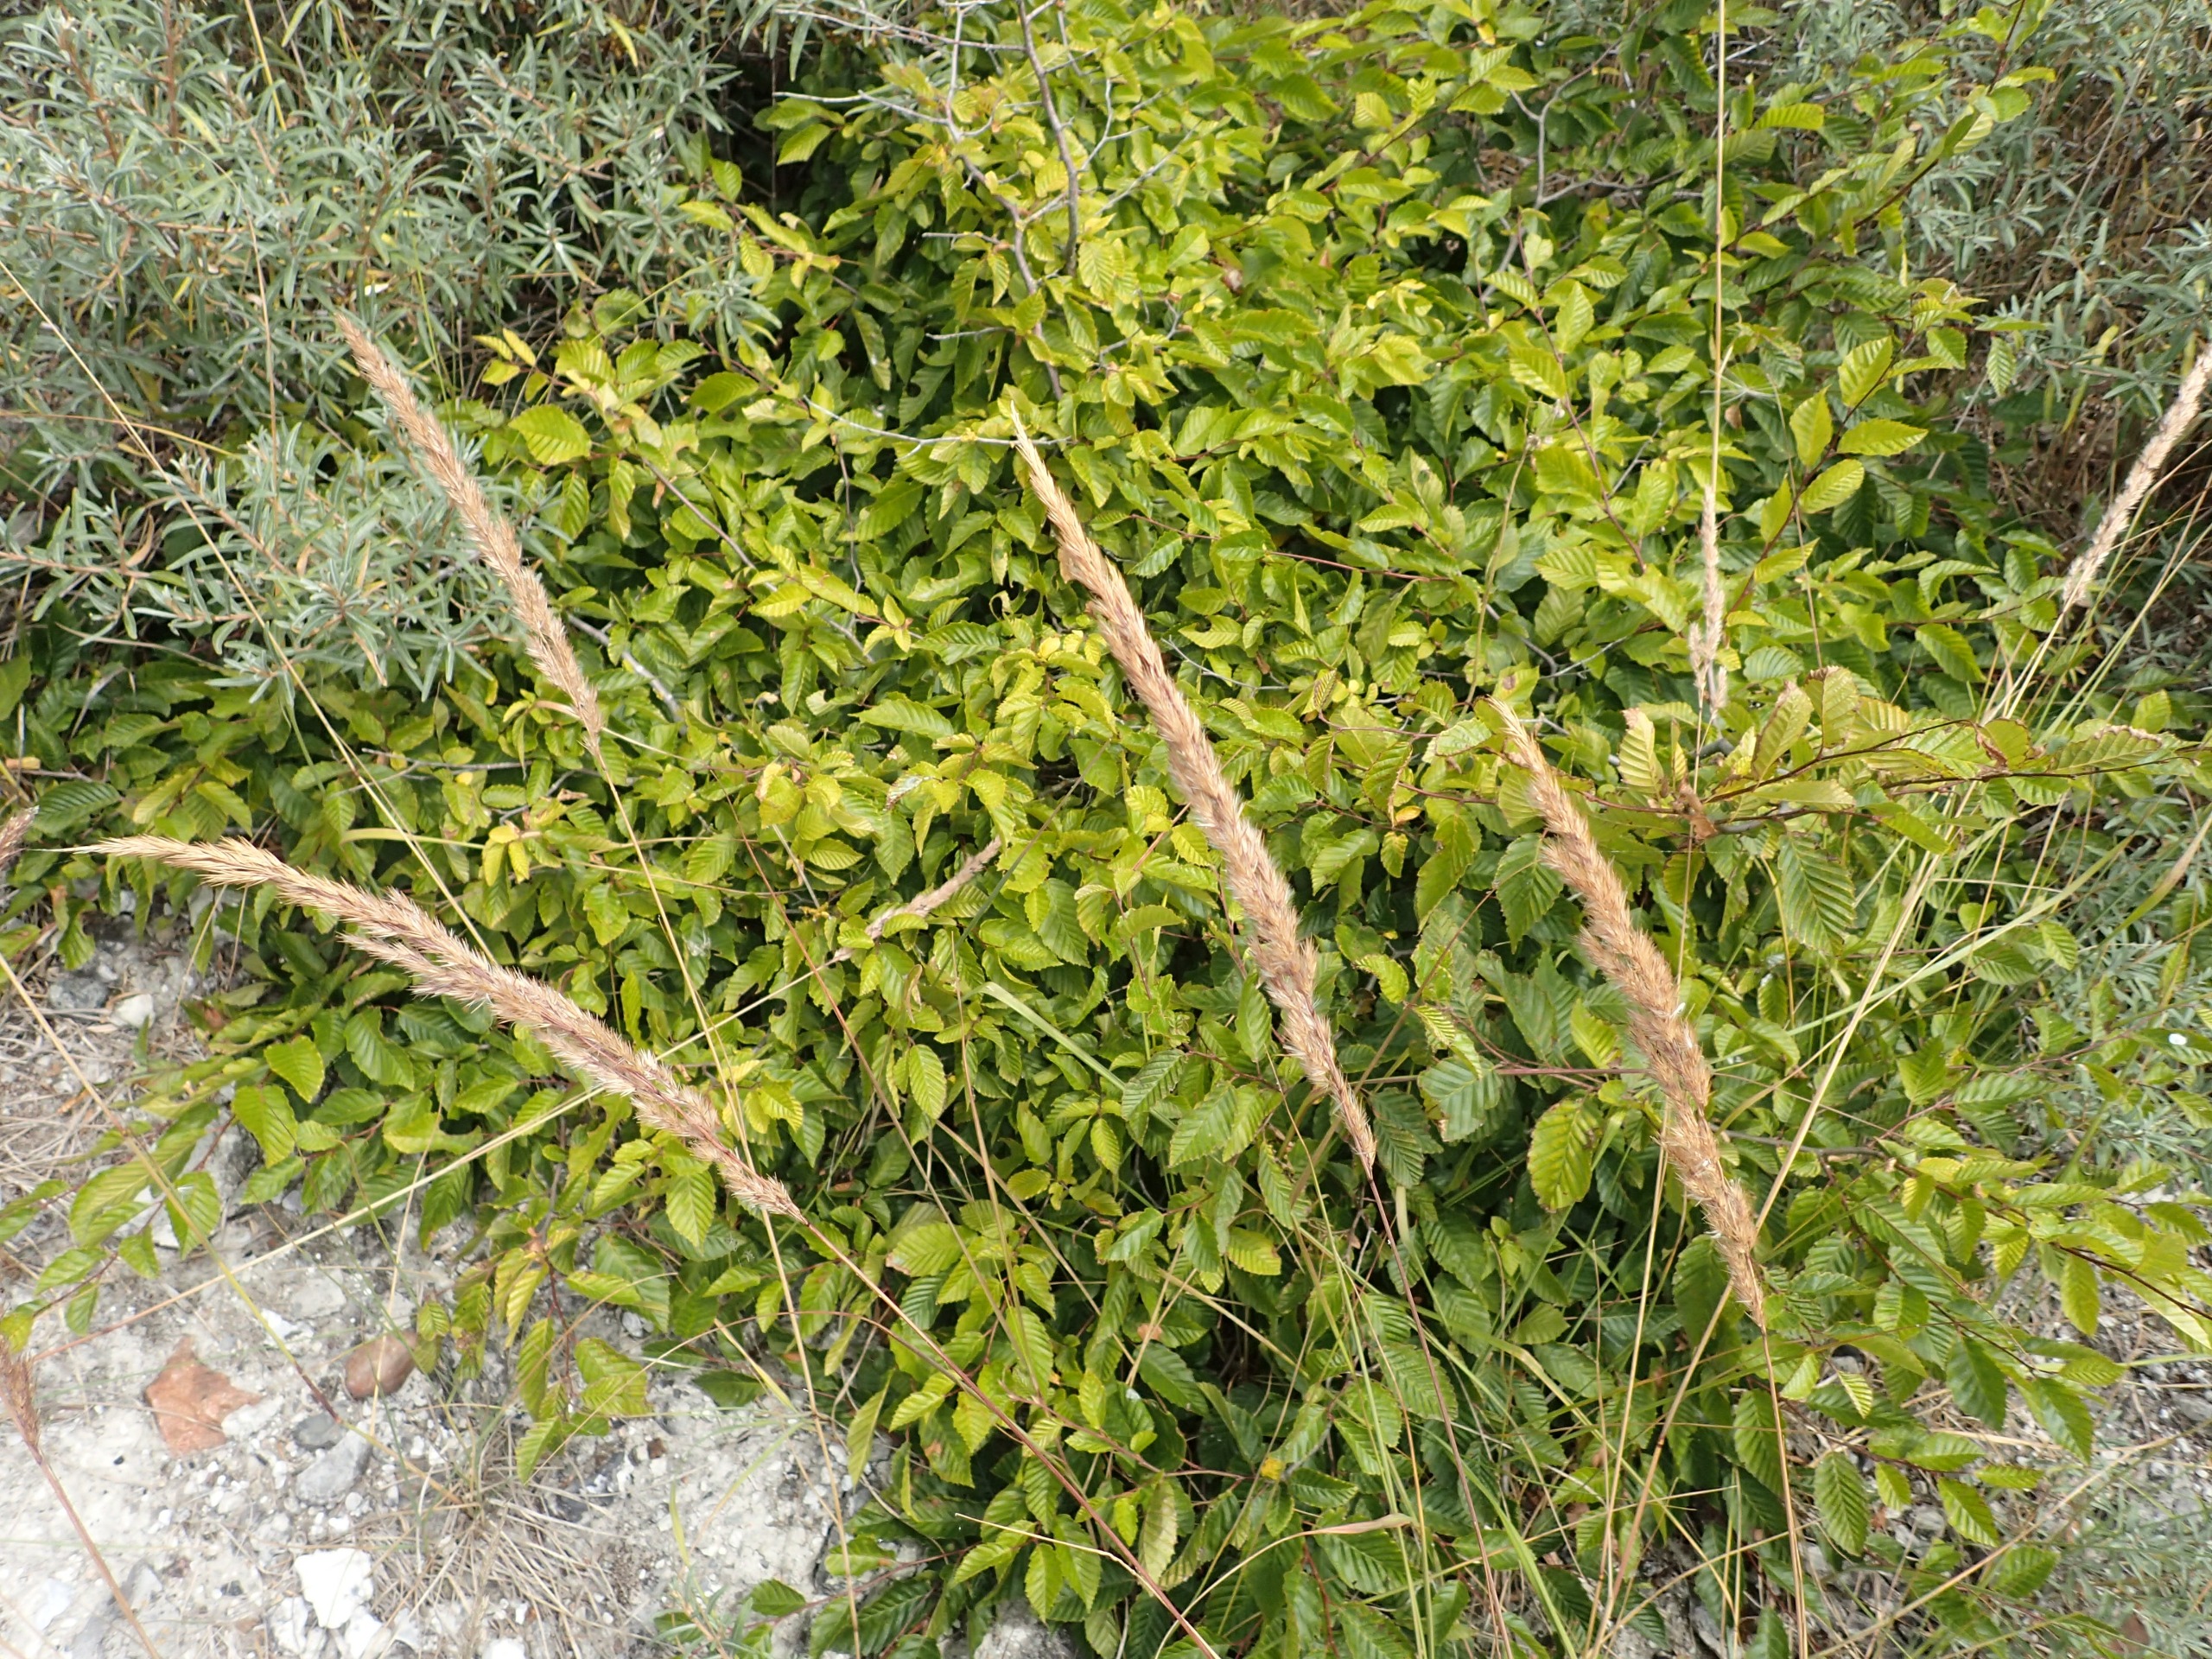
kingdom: Plantae
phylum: Tracheophyta
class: Magnoliopsida
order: Fagales
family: Betulaceae
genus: Carpinus
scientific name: Carpinus betulus
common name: Avnbøg
